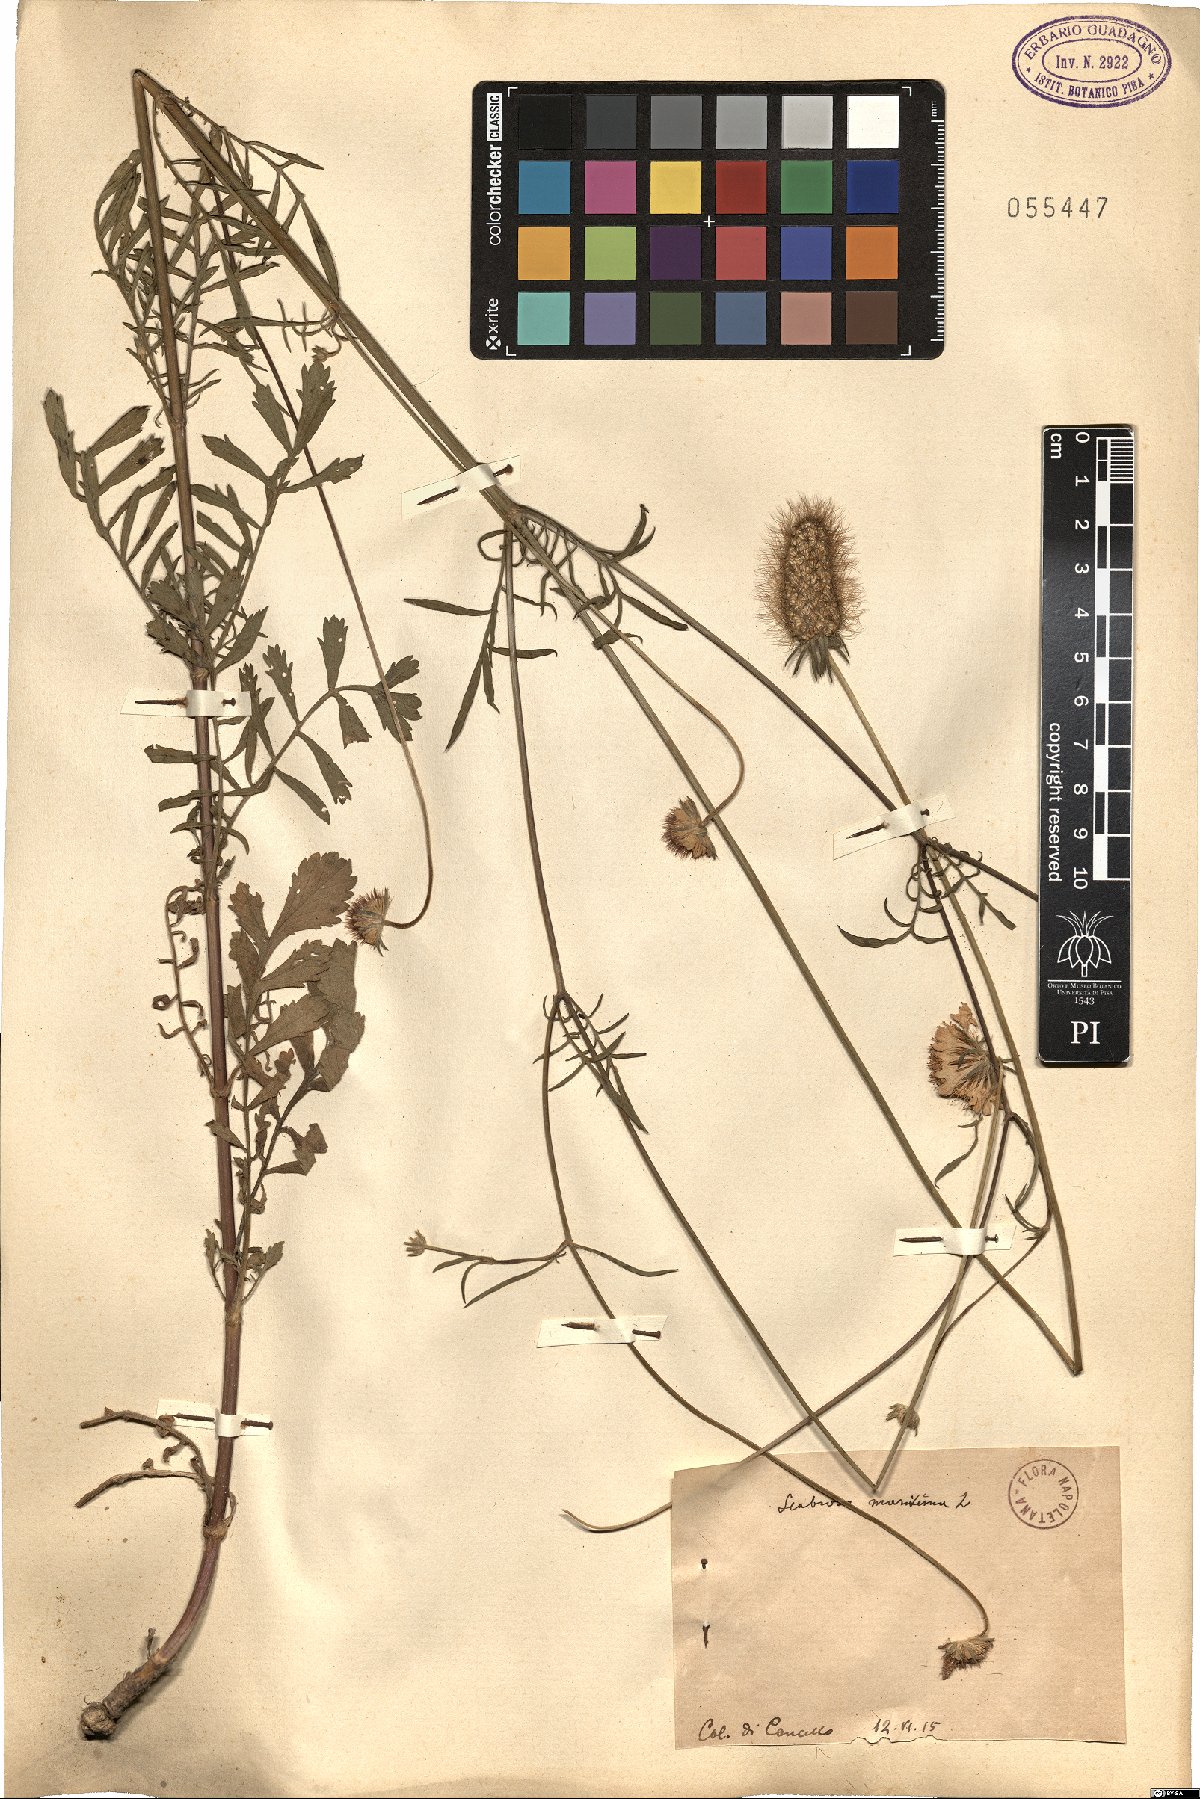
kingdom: Plantae
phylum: Tracheophyta
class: Magnoliopsida
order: Dipsacales
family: Caprifoliaceae
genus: Sixalix
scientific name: Sixalix maritima
